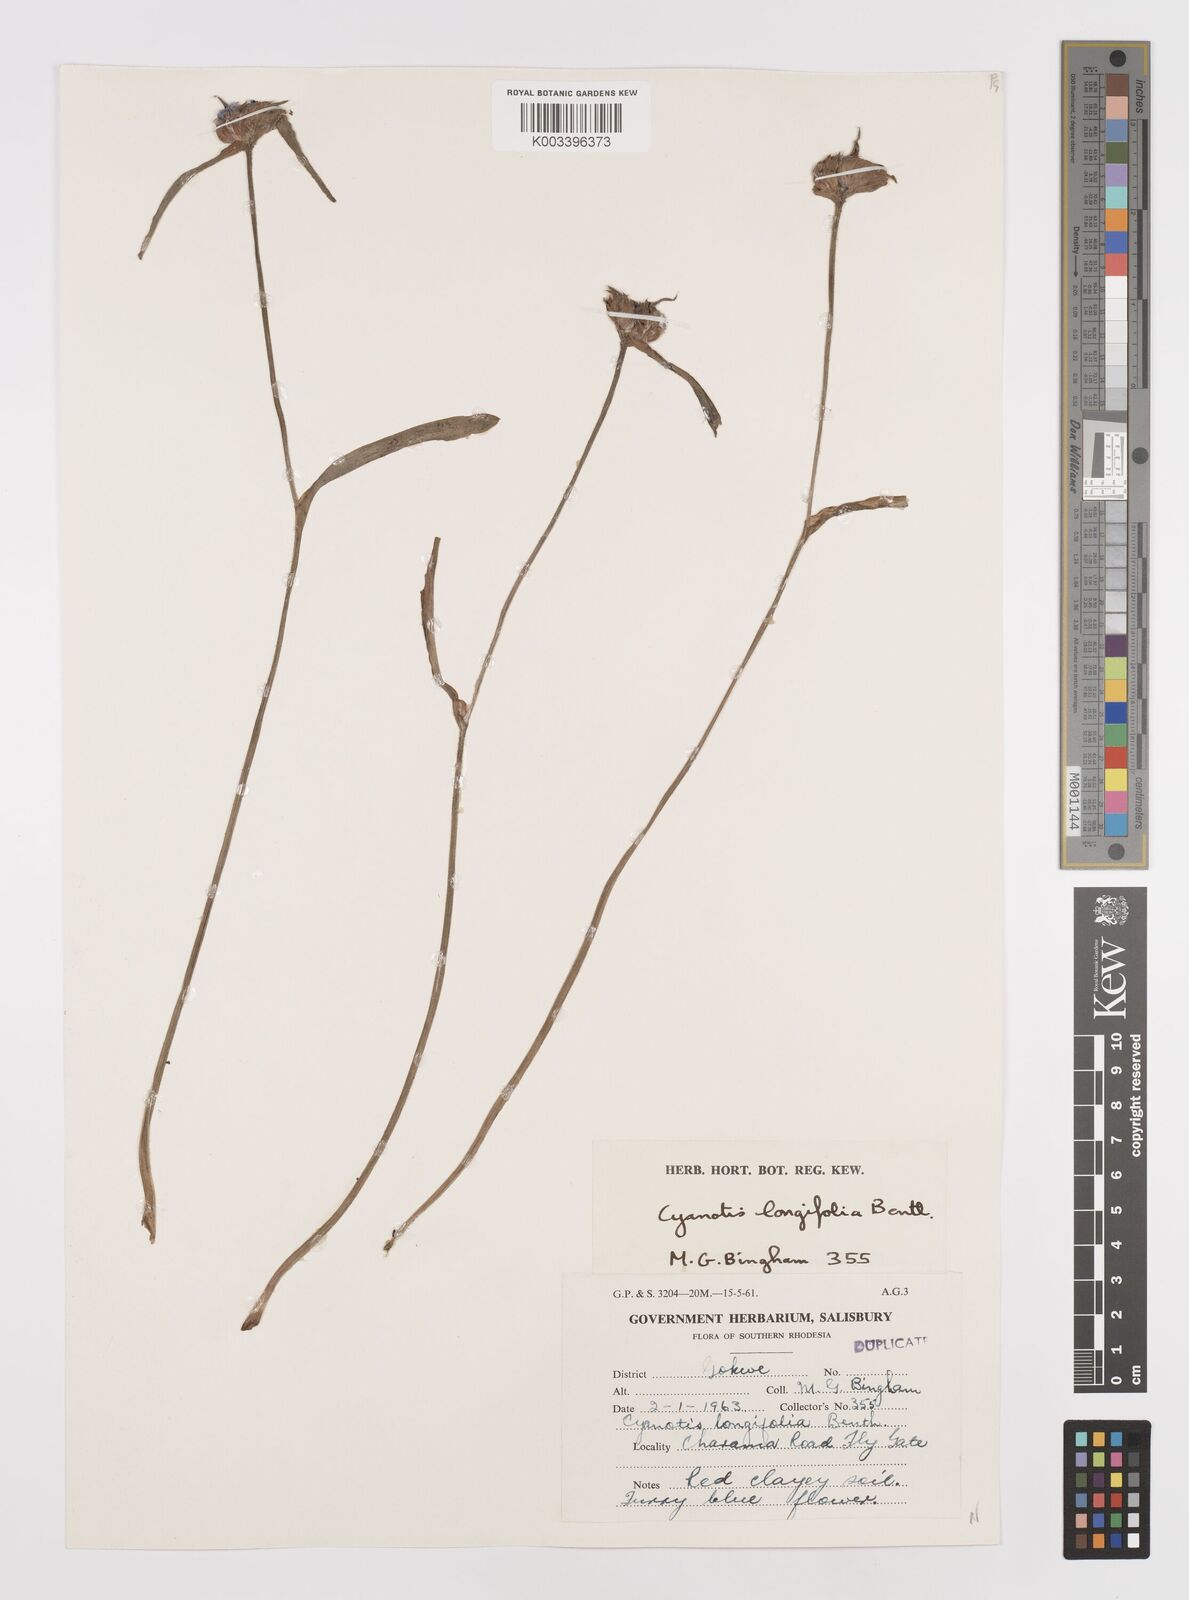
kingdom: Plantae
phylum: Tracheophyta
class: Liliopsida
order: Commelinales
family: Commelinaceae
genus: Cyanotis
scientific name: Cyanotis longifolia
